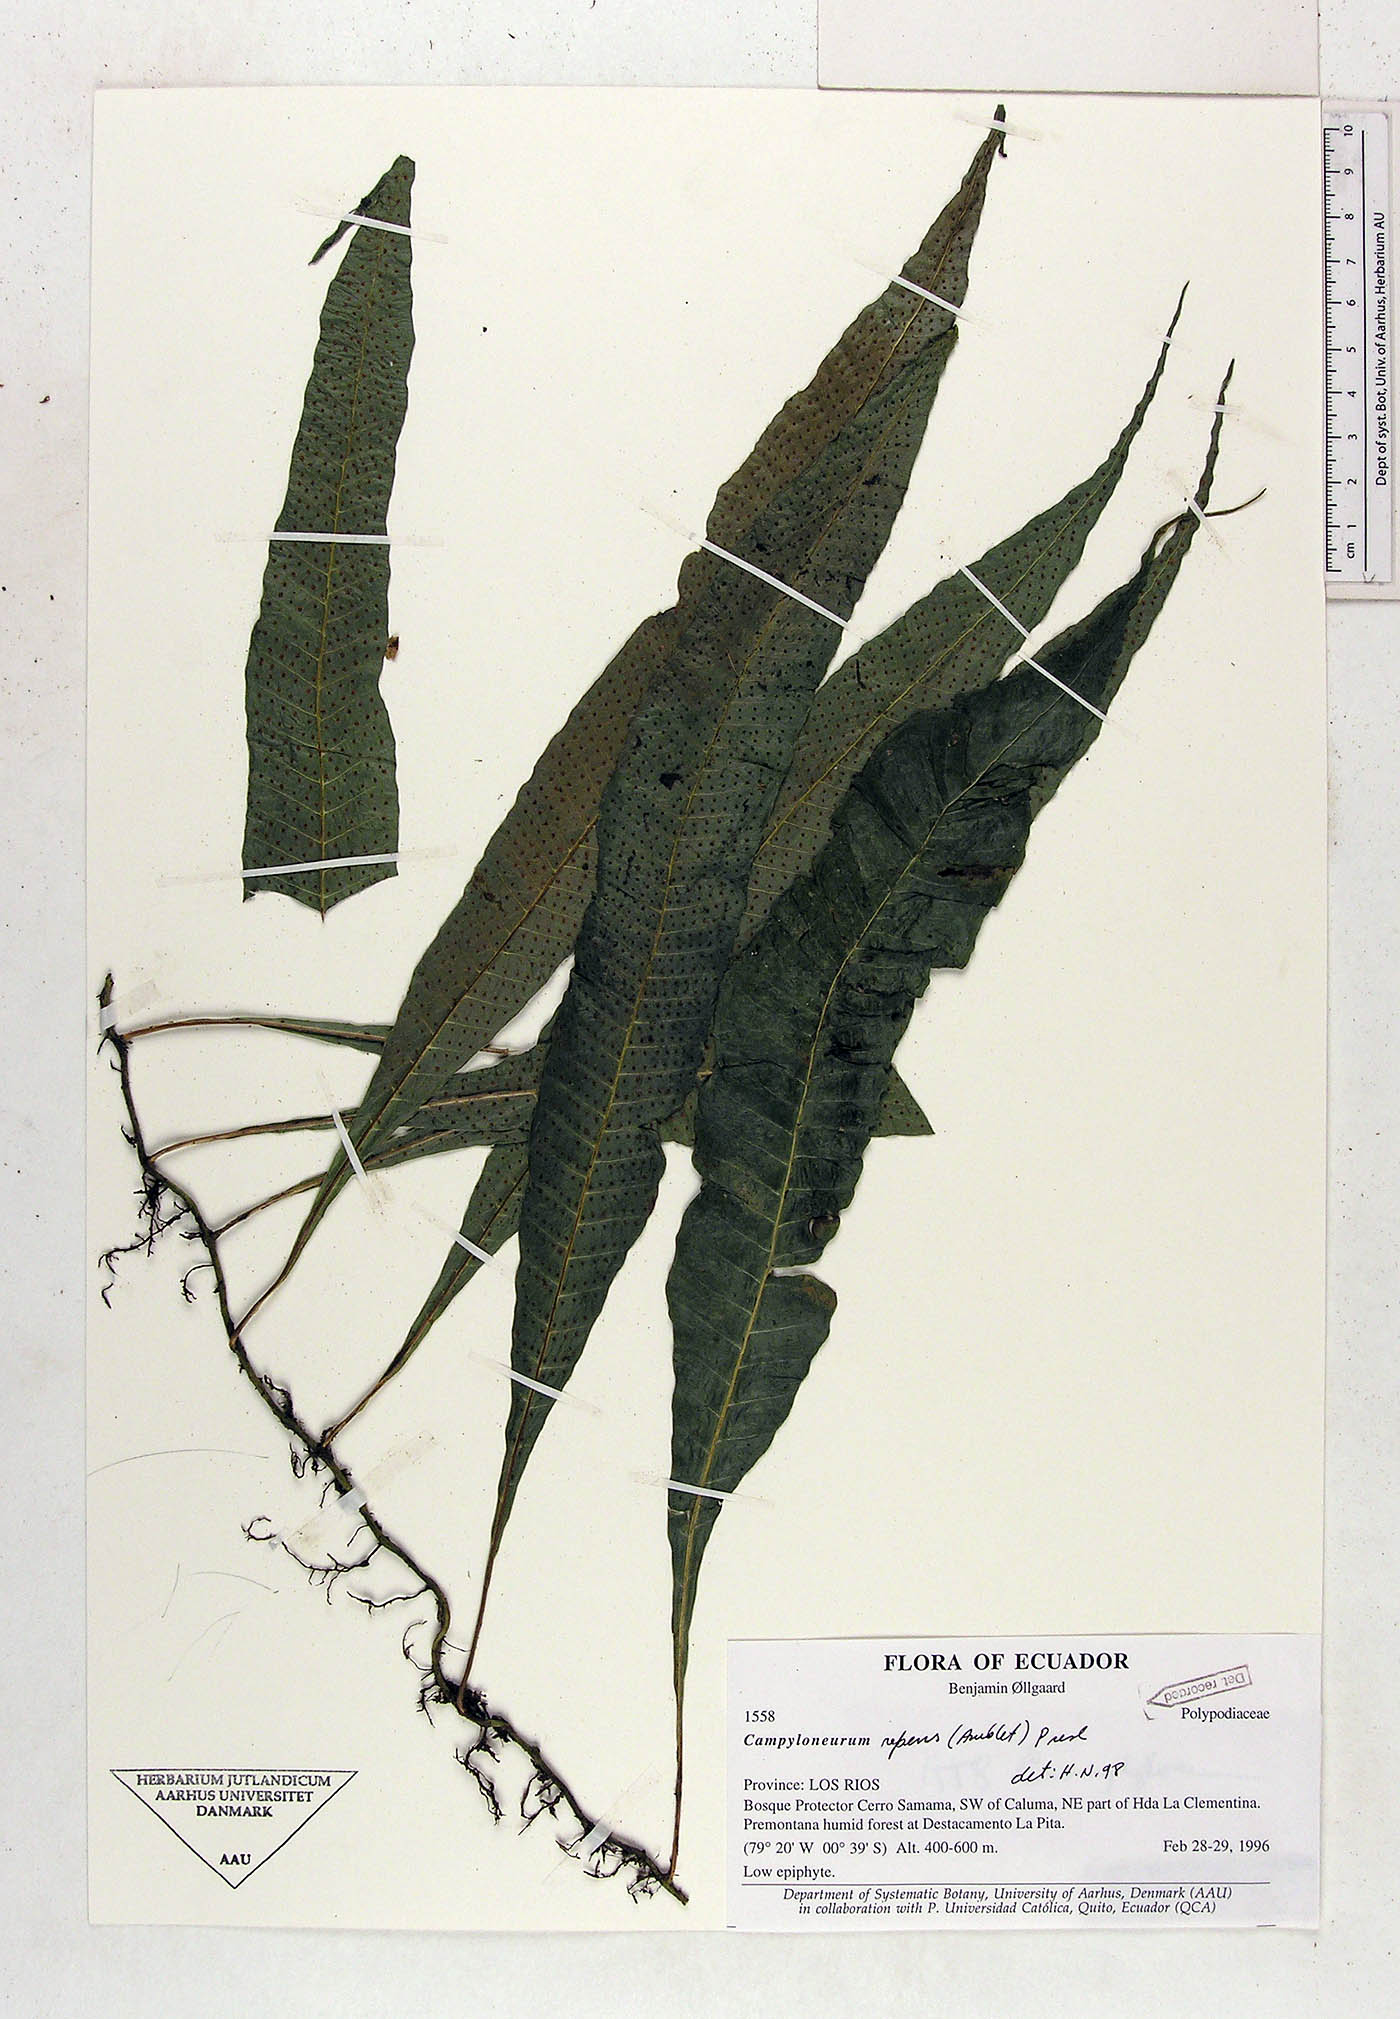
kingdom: Plantae
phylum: Tracheophyta
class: Polypodiopsida
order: Polypodiales
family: Polypodiaceae
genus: Campyloneurum
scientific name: Campyloneurum repens
